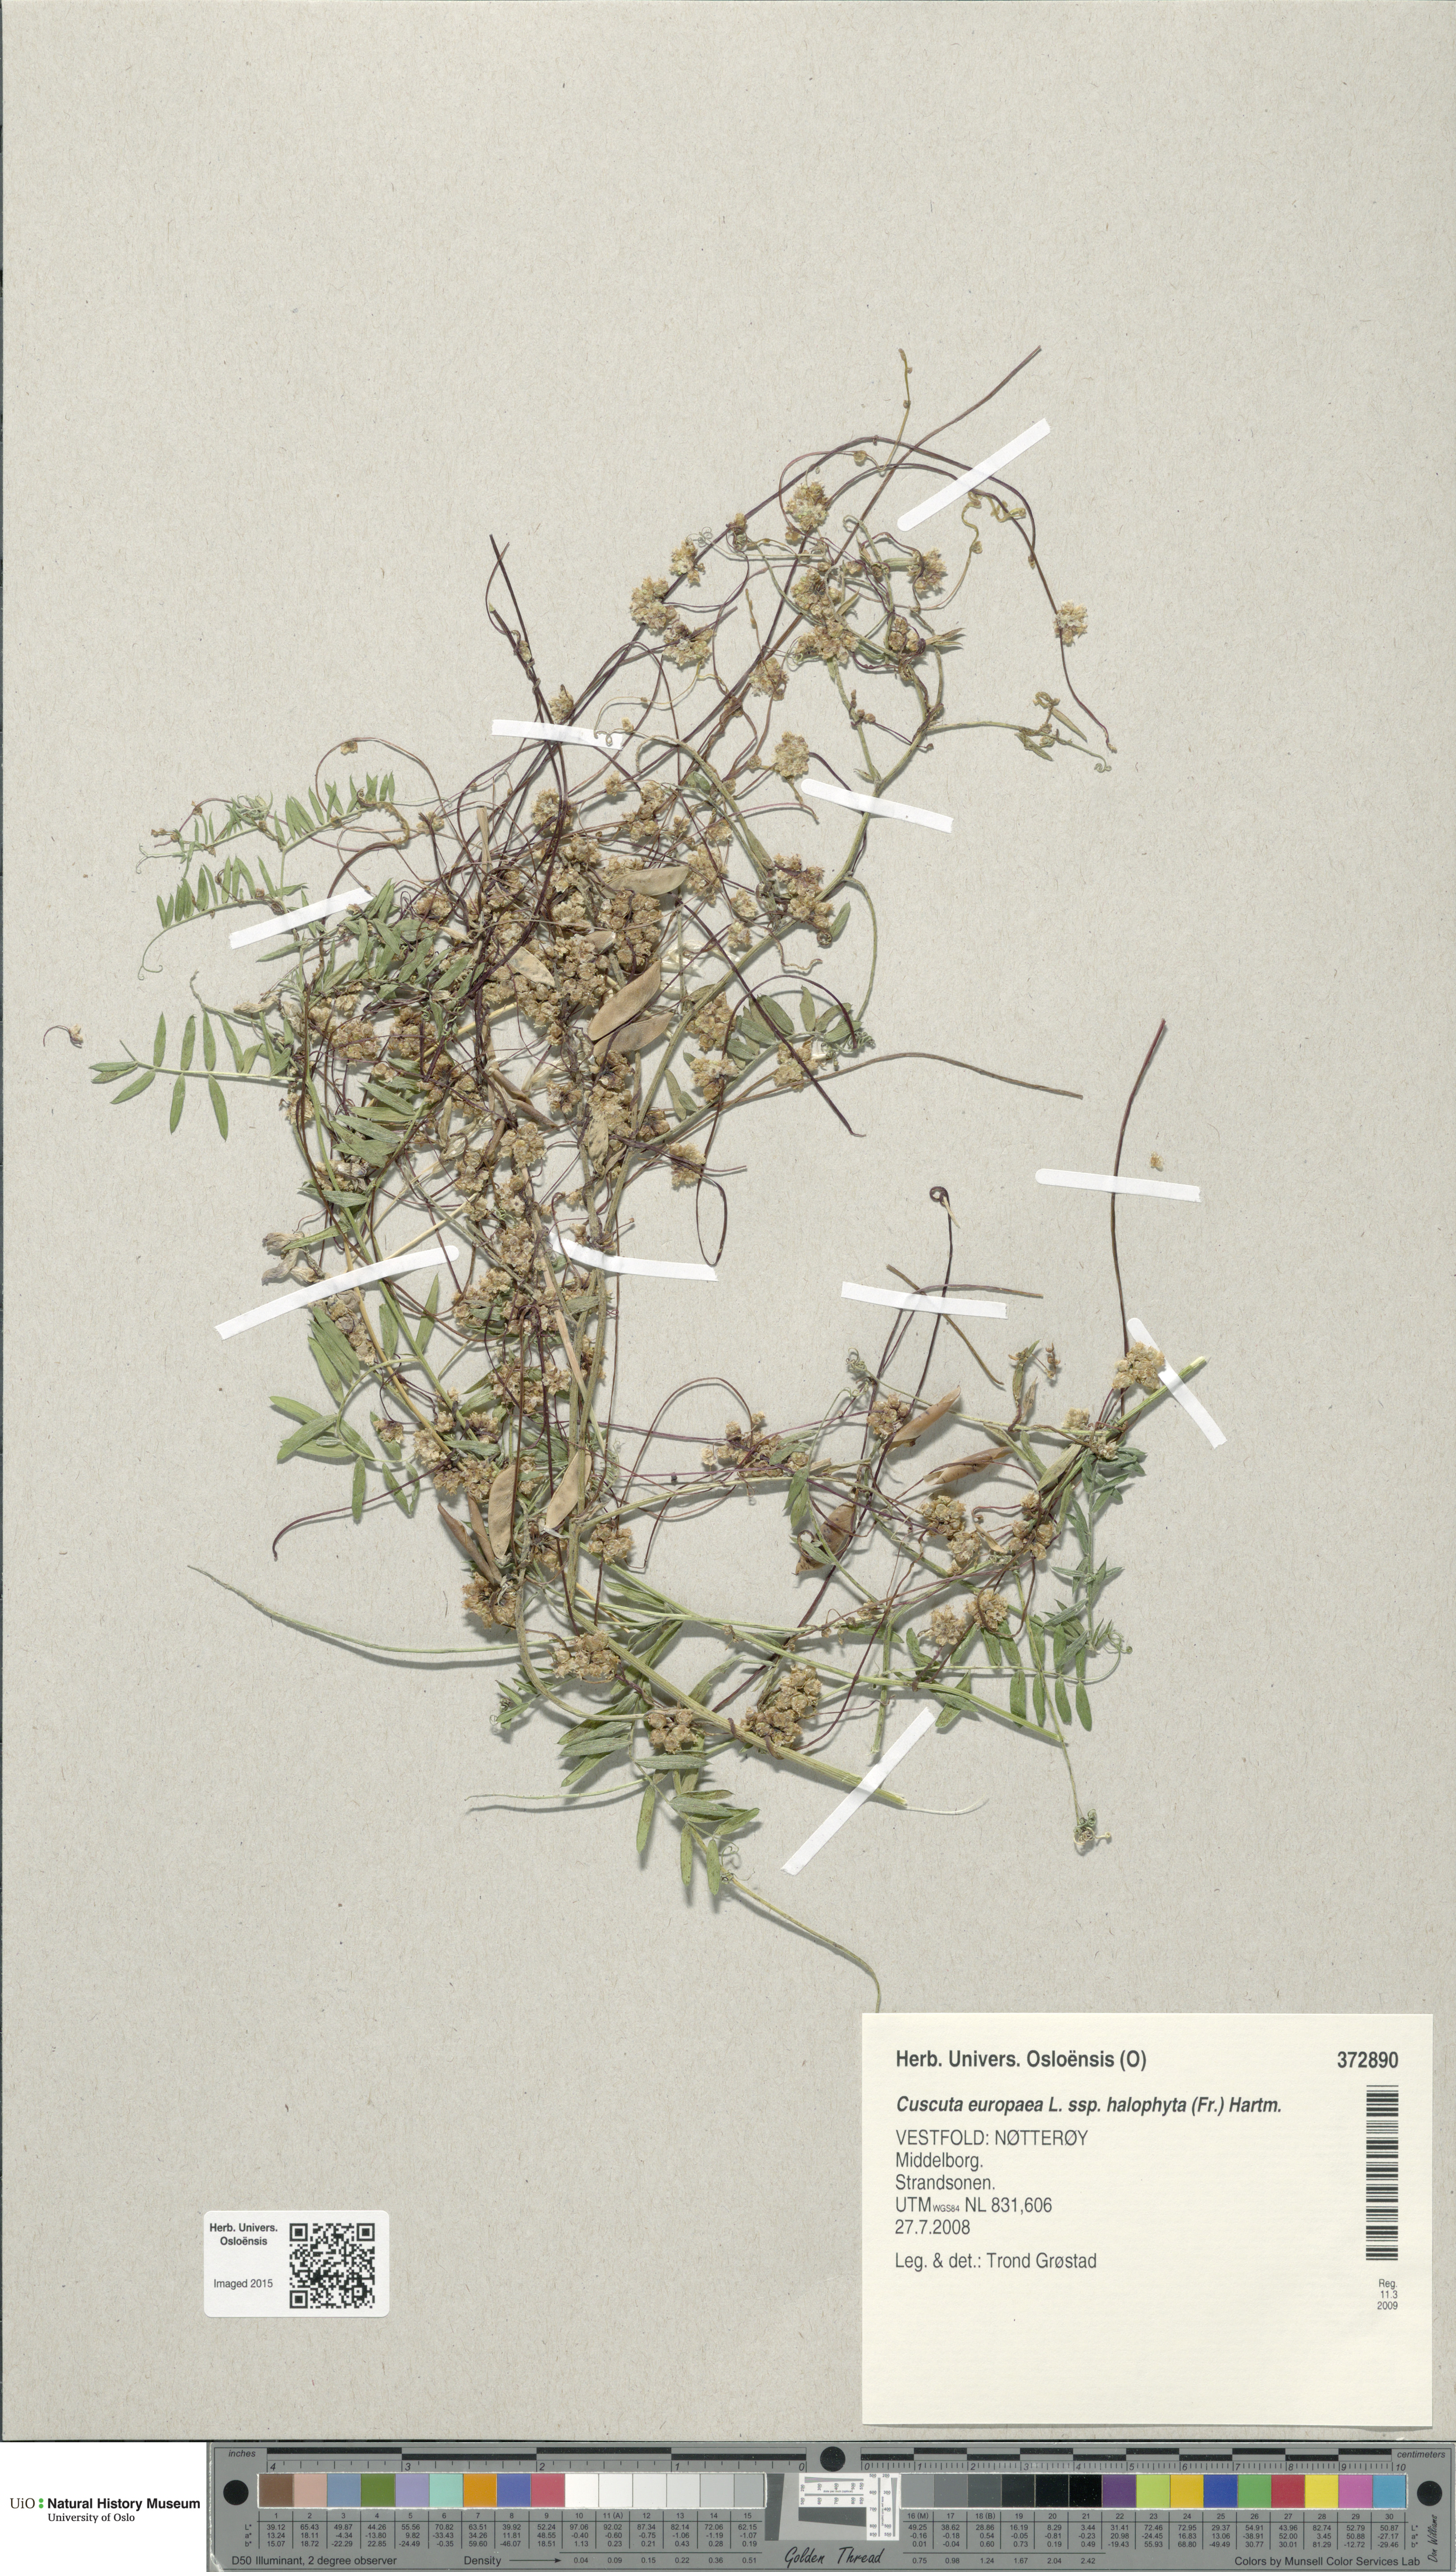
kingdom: Plantae
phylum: Tracheophyta
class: Magnoliopsida
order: Solanales
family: Convolvulaceae
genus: Cuscuta
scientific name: Cuscuta europaea
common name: Greater dodder
